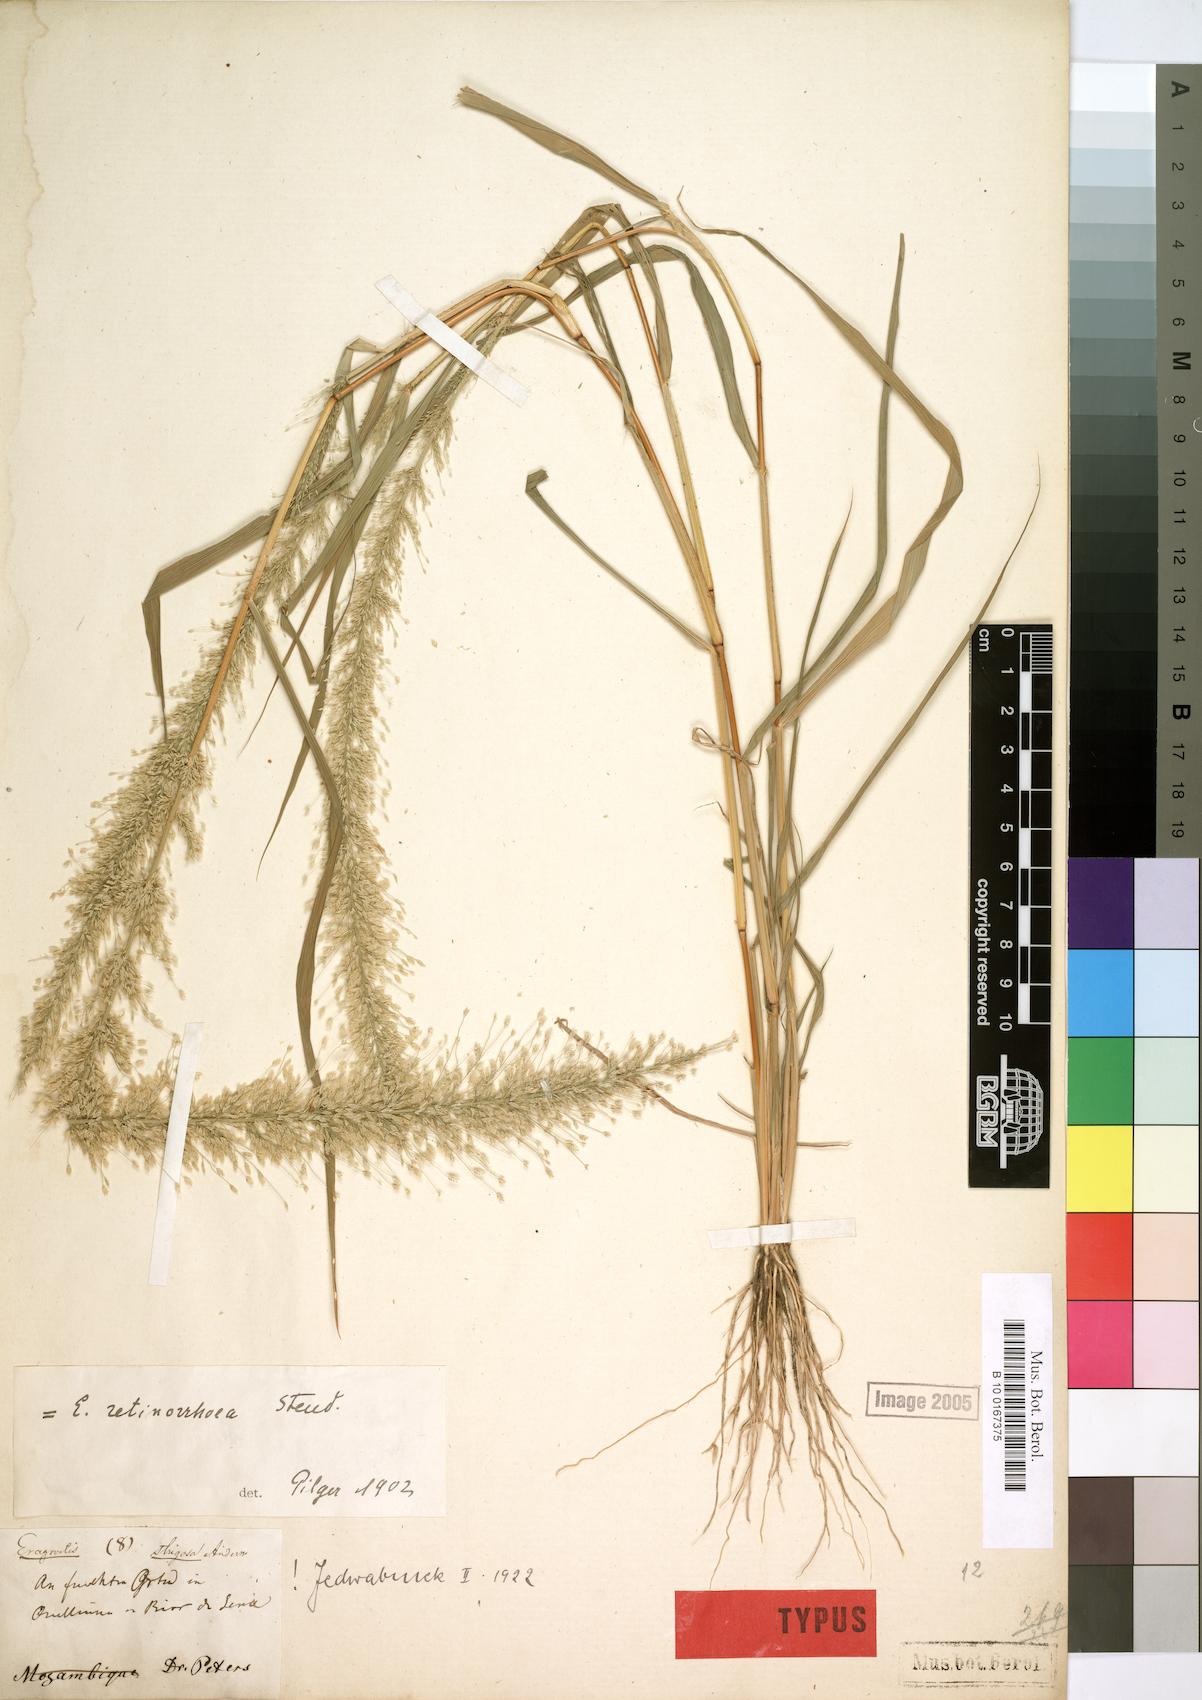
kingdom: Plantae
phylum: Tracheophyta
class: Liliopsida
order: Poales
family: Poaceae
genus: Eragrostis
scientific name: Eragrostis viscosa
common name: Sticky love grass
